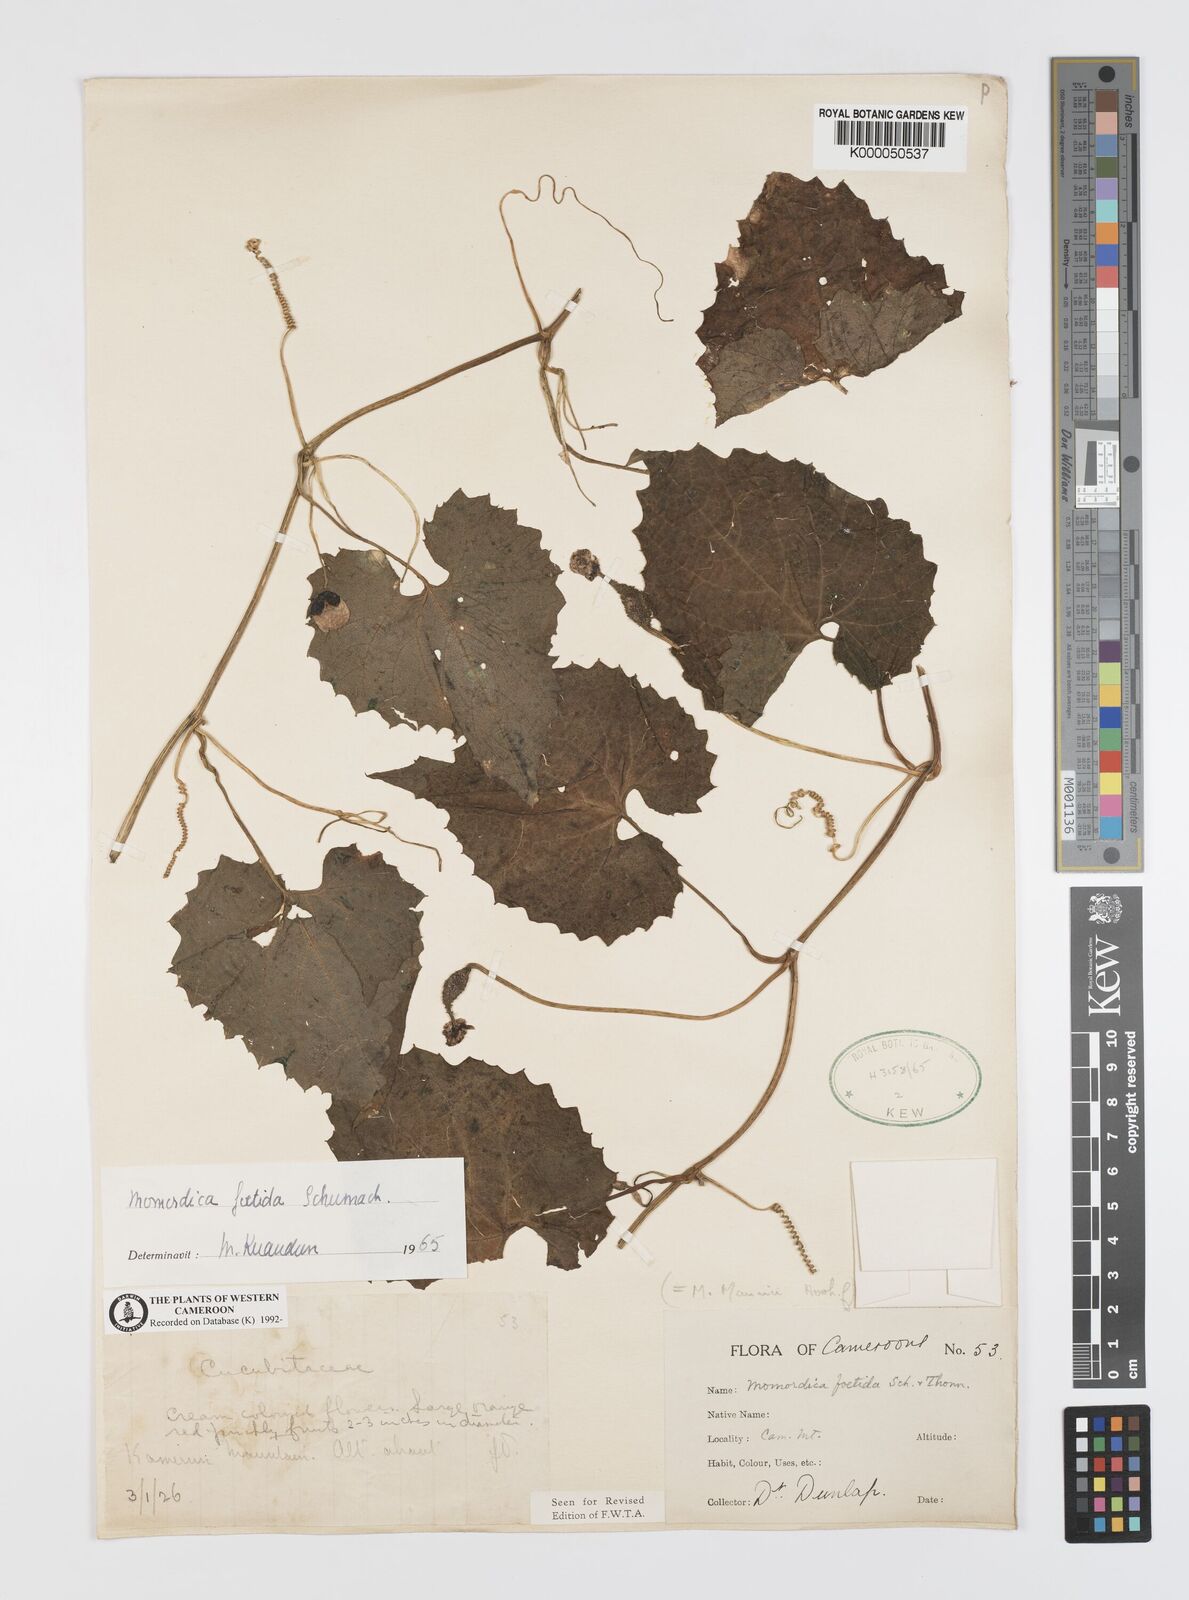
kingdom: Plantae
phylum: Tracheophyta
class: Magnoliopsida
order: Cucurbitales
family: Cucurbitaceae
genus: Momordica
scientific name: Momordica foetida
